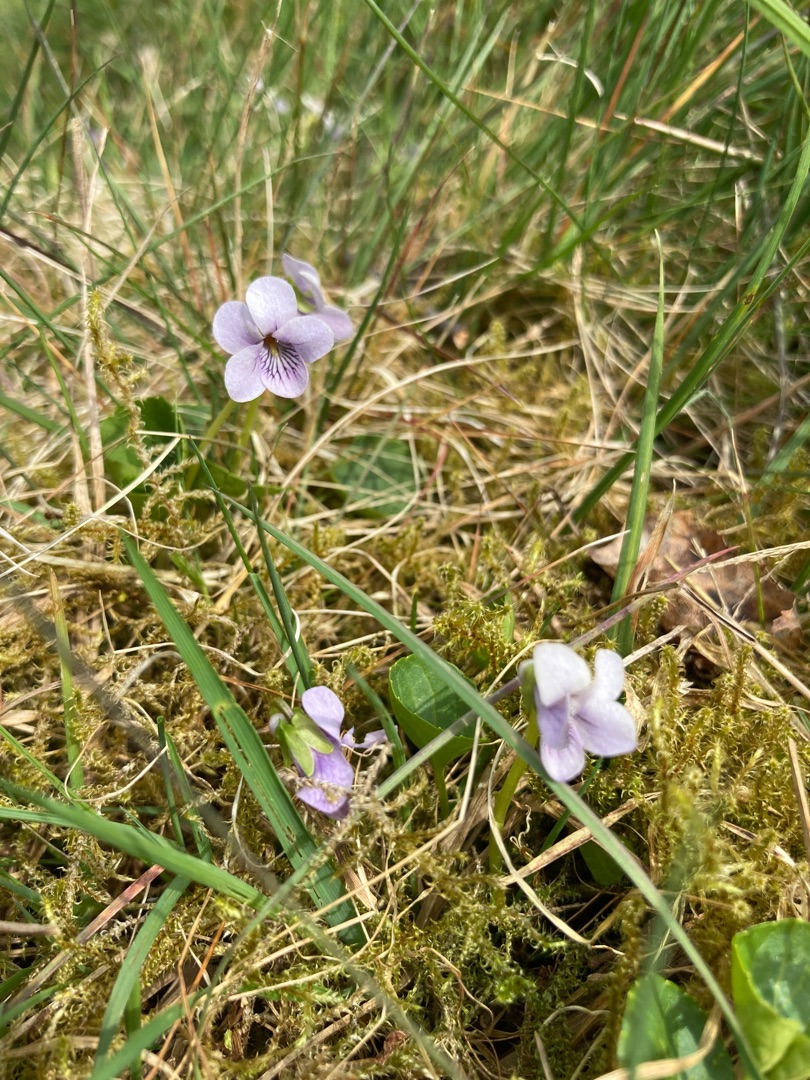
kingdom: Plantae
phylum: Tracheophyta
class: Magnoliopsida
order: Malpighiales
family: Violaceae
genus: Viola
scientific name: Viola palustris
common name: Eng-viol
